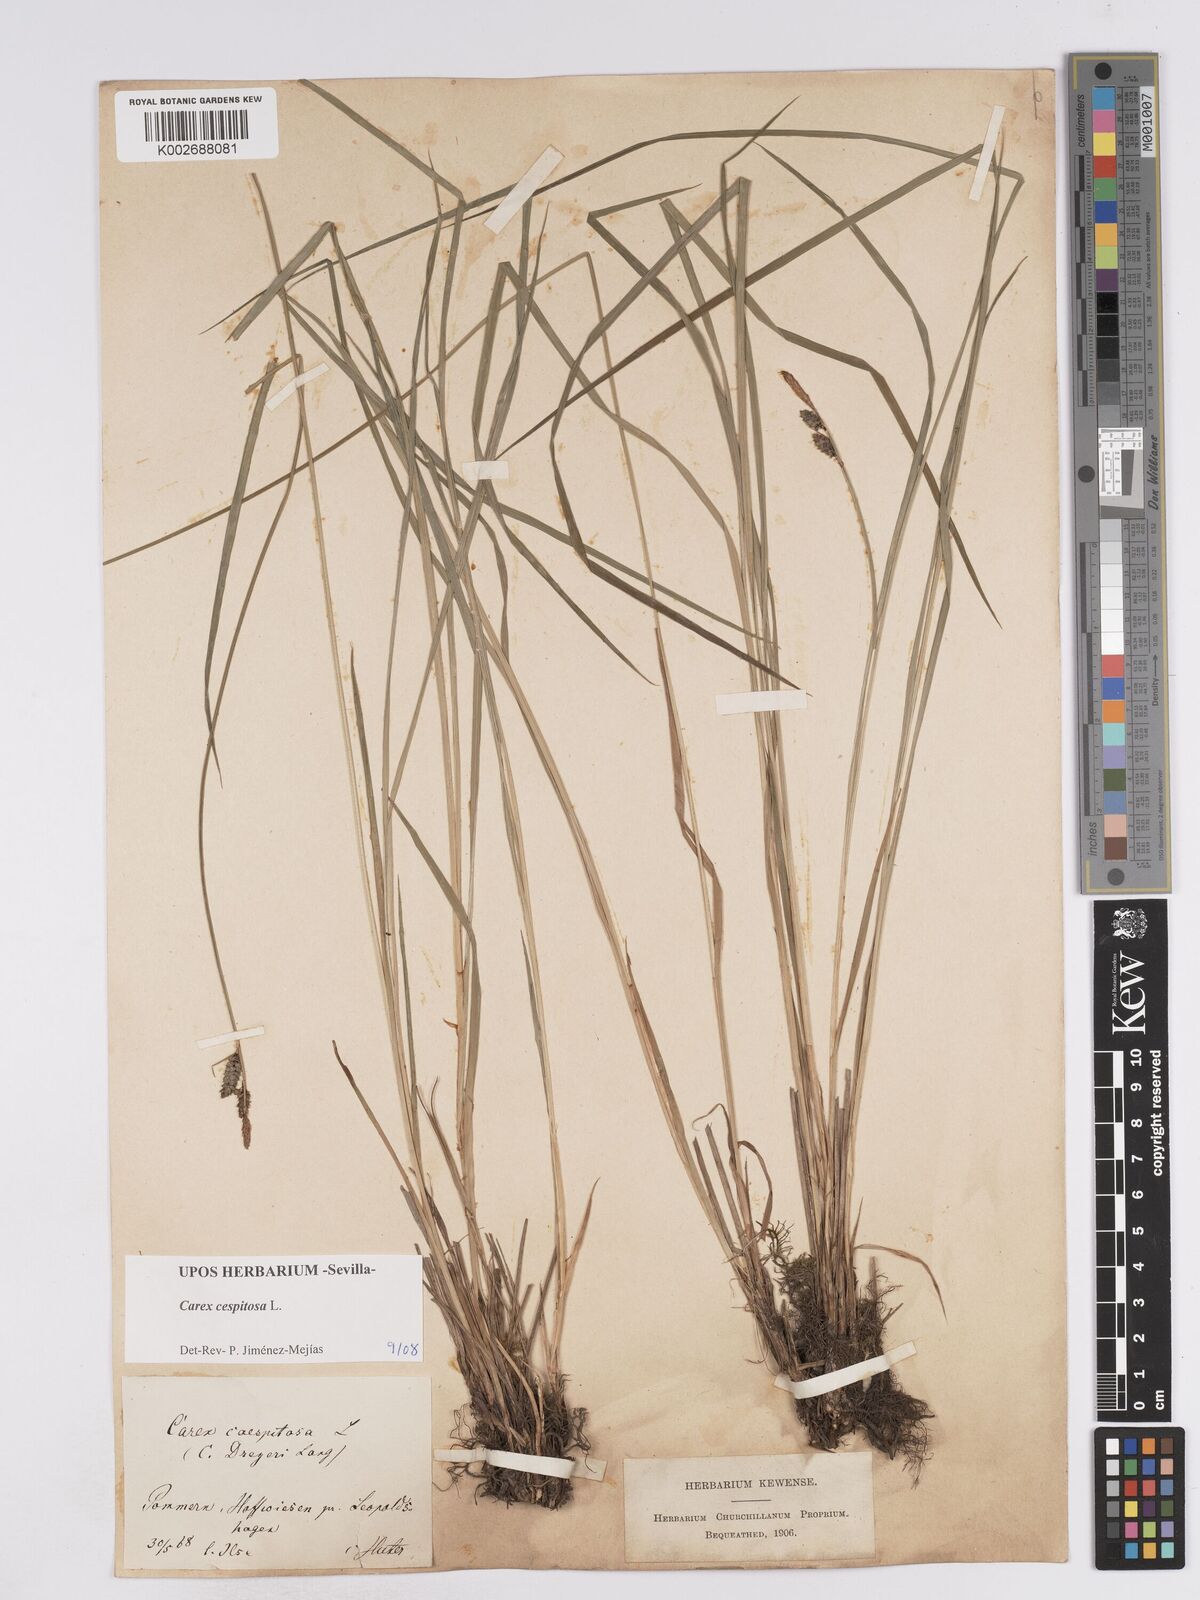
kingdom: Plantae
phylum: Tracheophyta
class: Liliopsida
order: Poales
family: Cyperaceae
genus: Carex
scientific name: Carex
